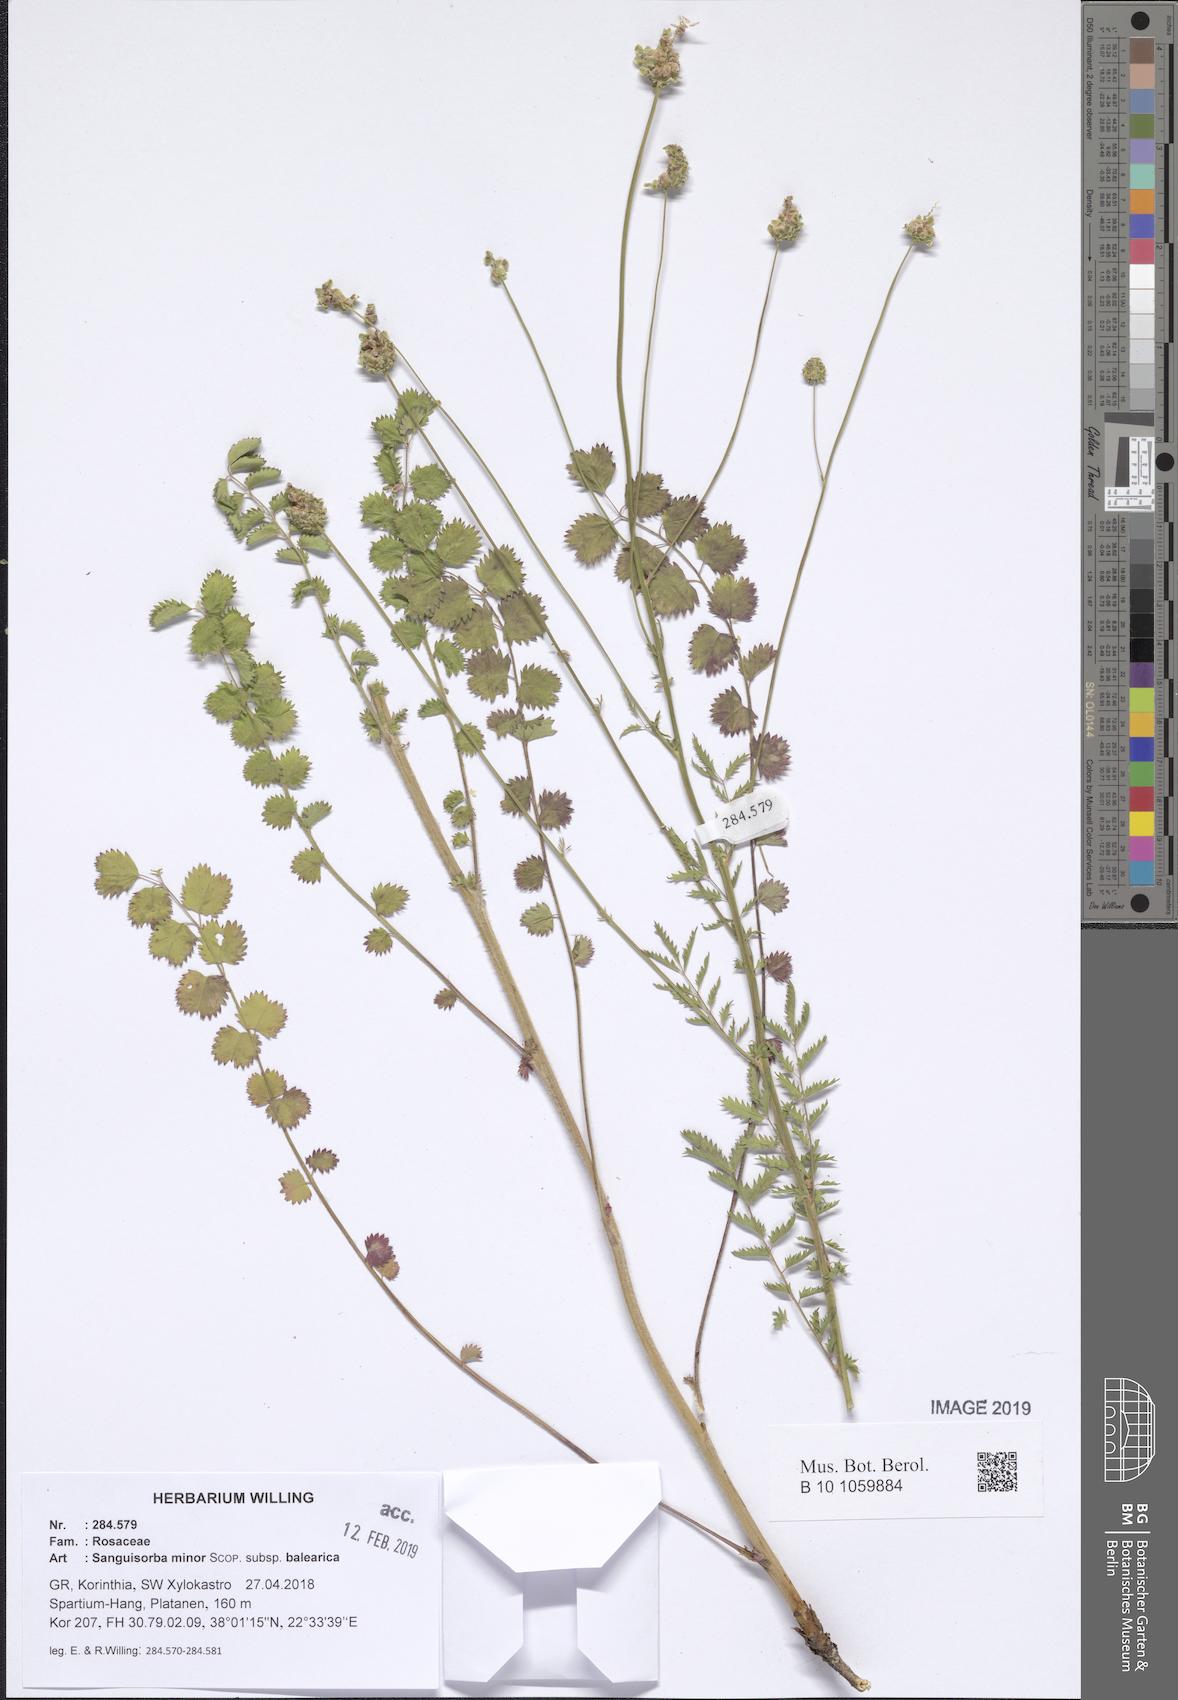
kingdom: Plantae
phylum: Tracheophyta
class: Magnoliopsida
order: Rosales
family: Rosaceae
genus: Poterium
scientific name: Poterium sanguisorba
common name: Salad burnet
